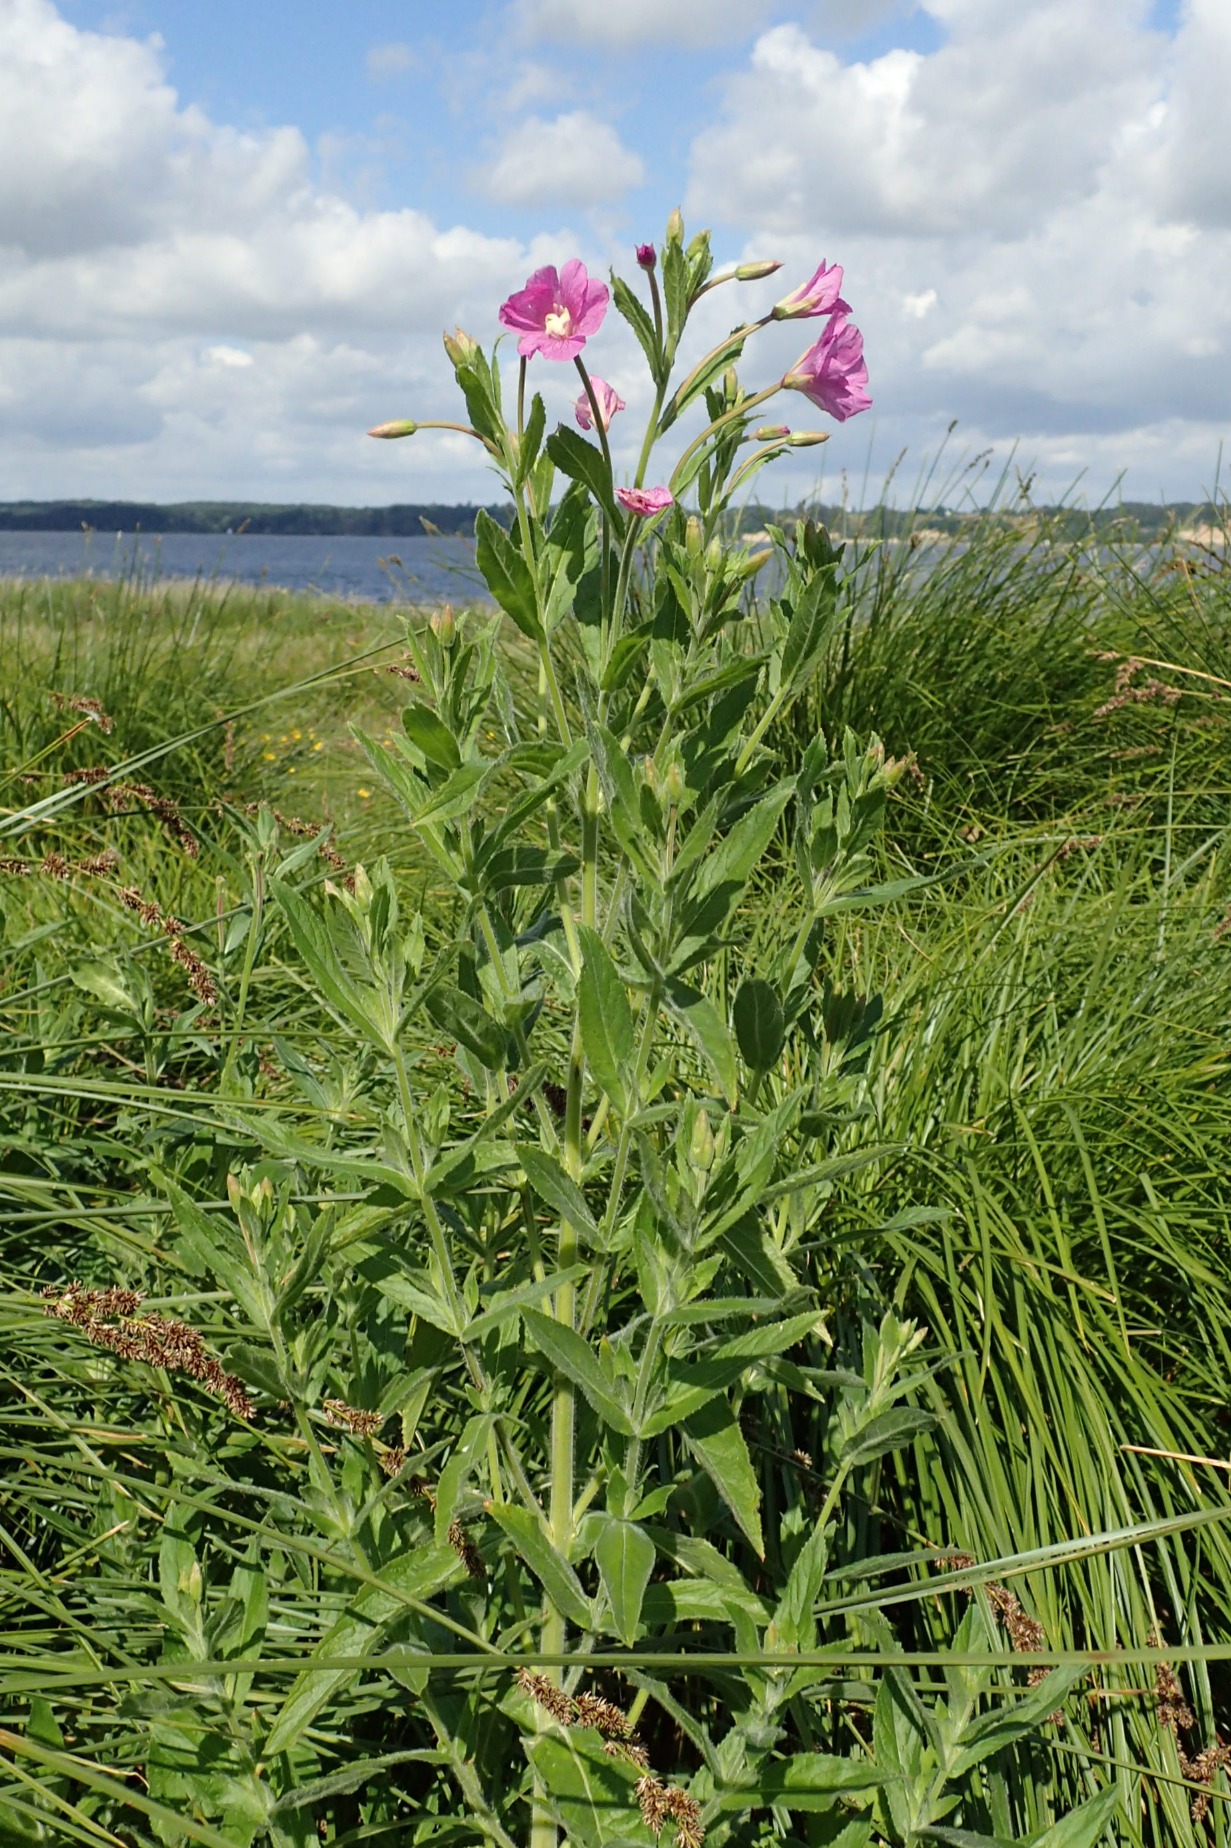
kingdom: Plantae
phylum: Tracheophyta
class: Magnoliopsida
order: Myrtales
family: Onagraceae
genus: Epilobium
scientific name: Epilobium hirsutum
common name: Lådden dueurt
